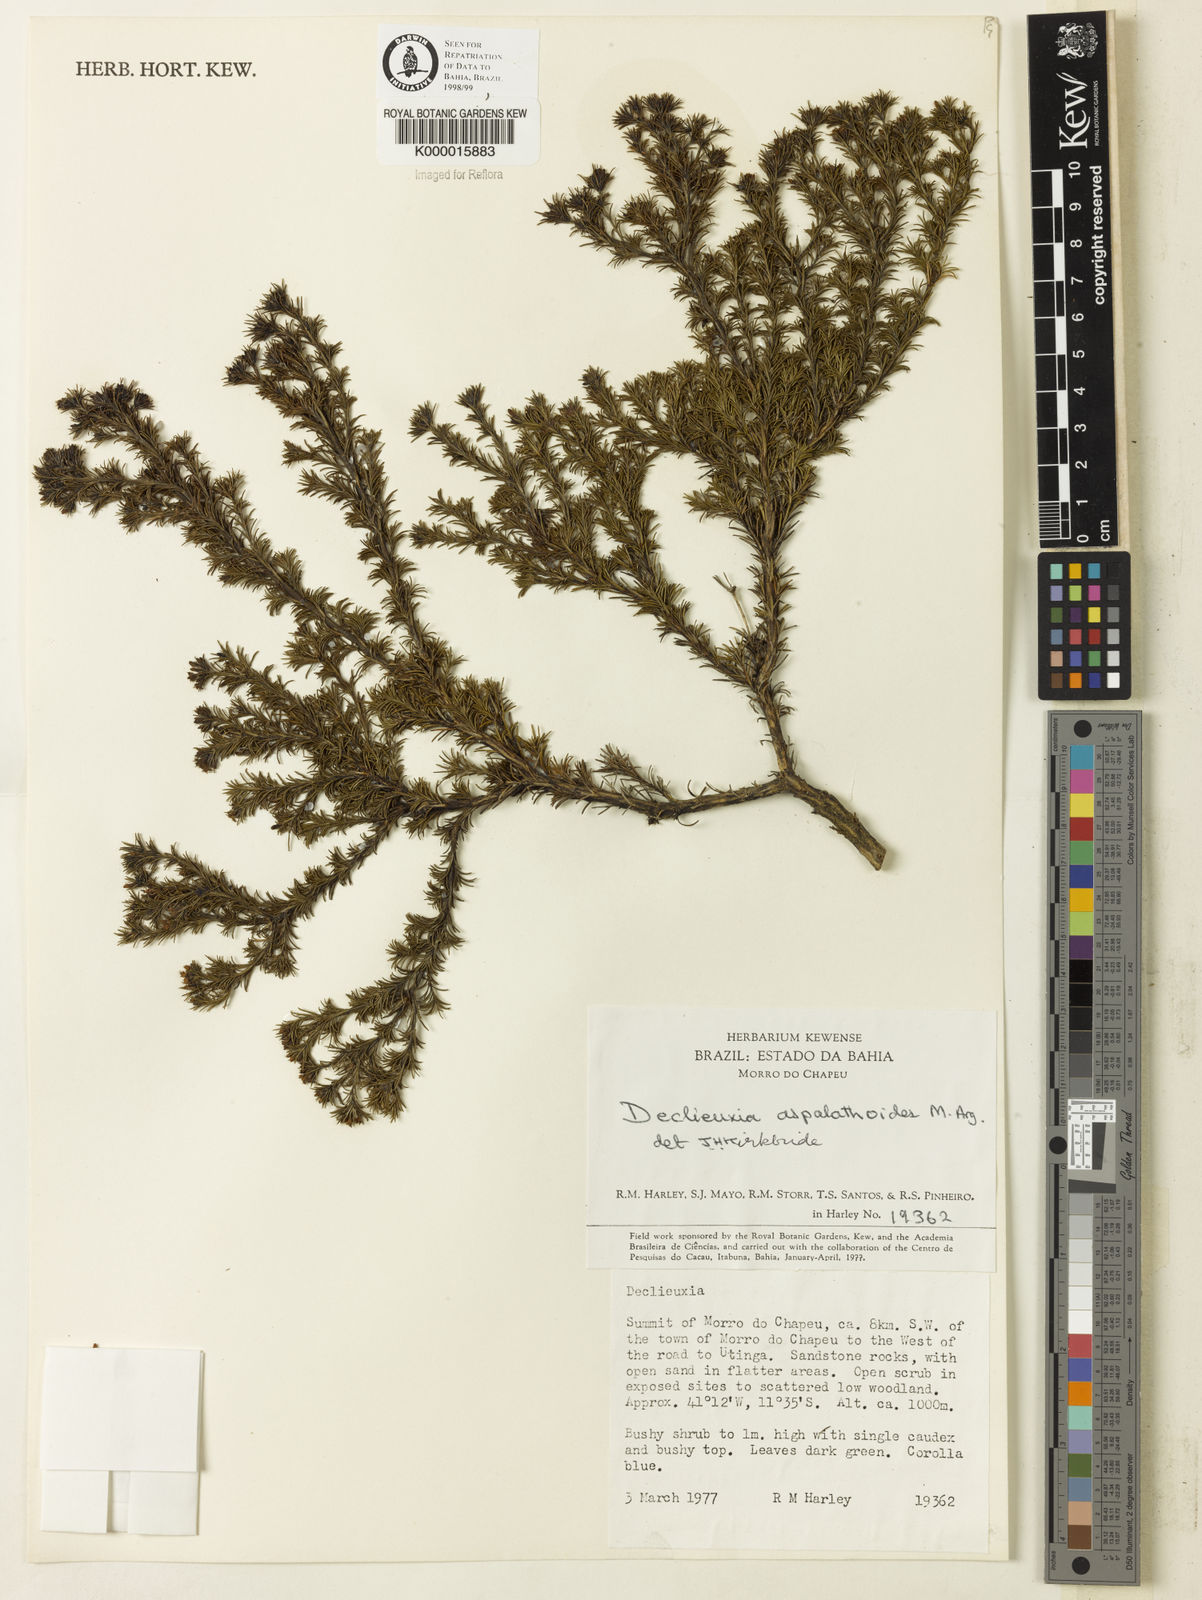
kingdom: Plantae
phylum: Tracheophyta
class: Magnoliopsida
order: Gentianales
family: Rubiaceae
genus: Declieuxia
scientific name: Declieuxia aspalathoides
